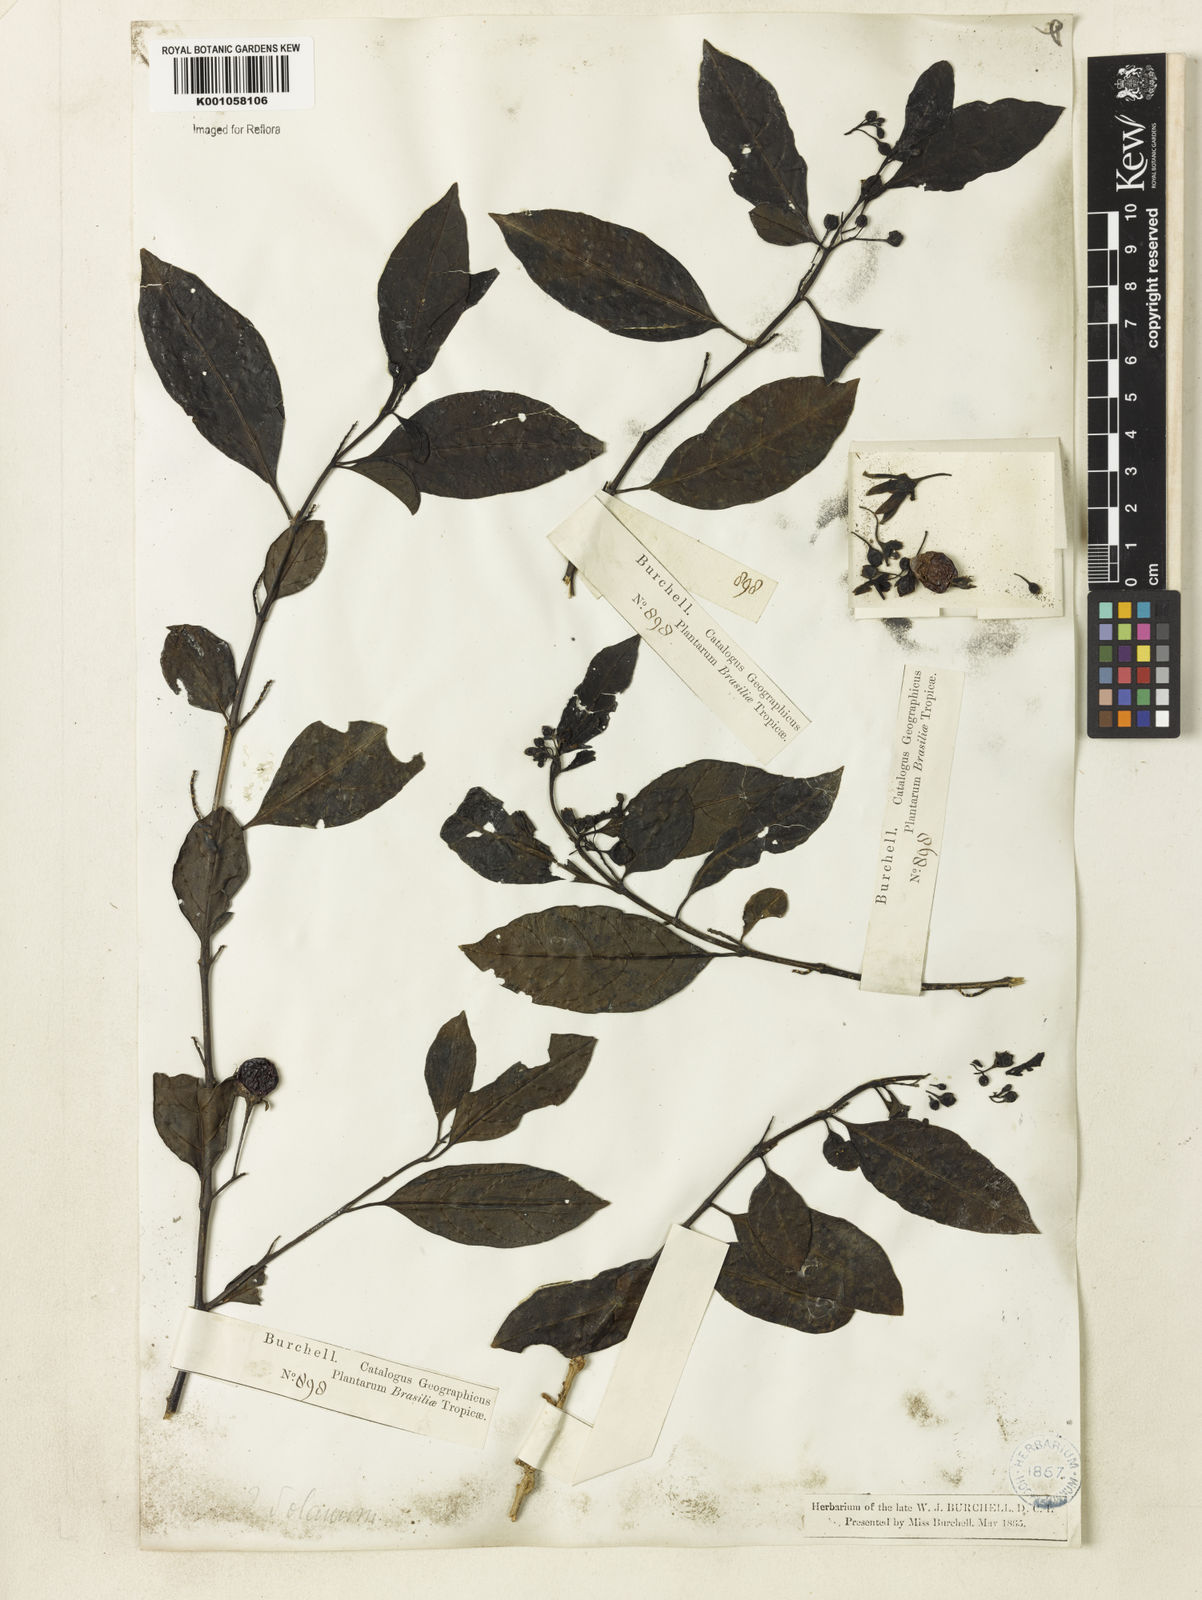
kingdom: Plantae
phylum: Tracheophyta
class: Magnoliopsida
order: Solanales
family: Solanaceae
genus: Solanum
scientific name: Solanum caavurana
